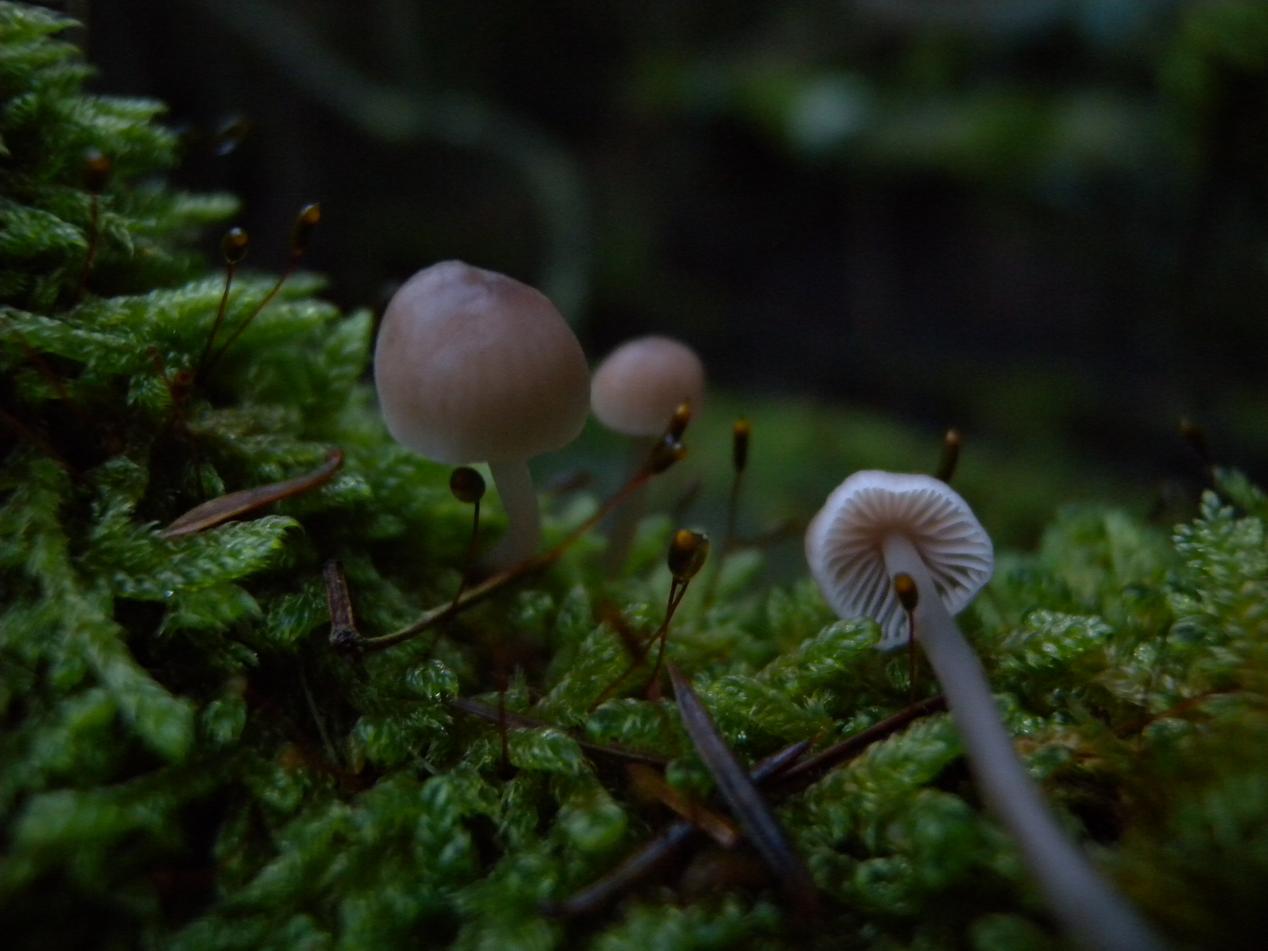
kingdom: Fungi
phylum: Basidiomycota
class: Agaricomycetes
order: Agaricales
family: Mycenaceae
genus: Mycena
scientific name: Mycena metata
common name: rødlig huesvamp
